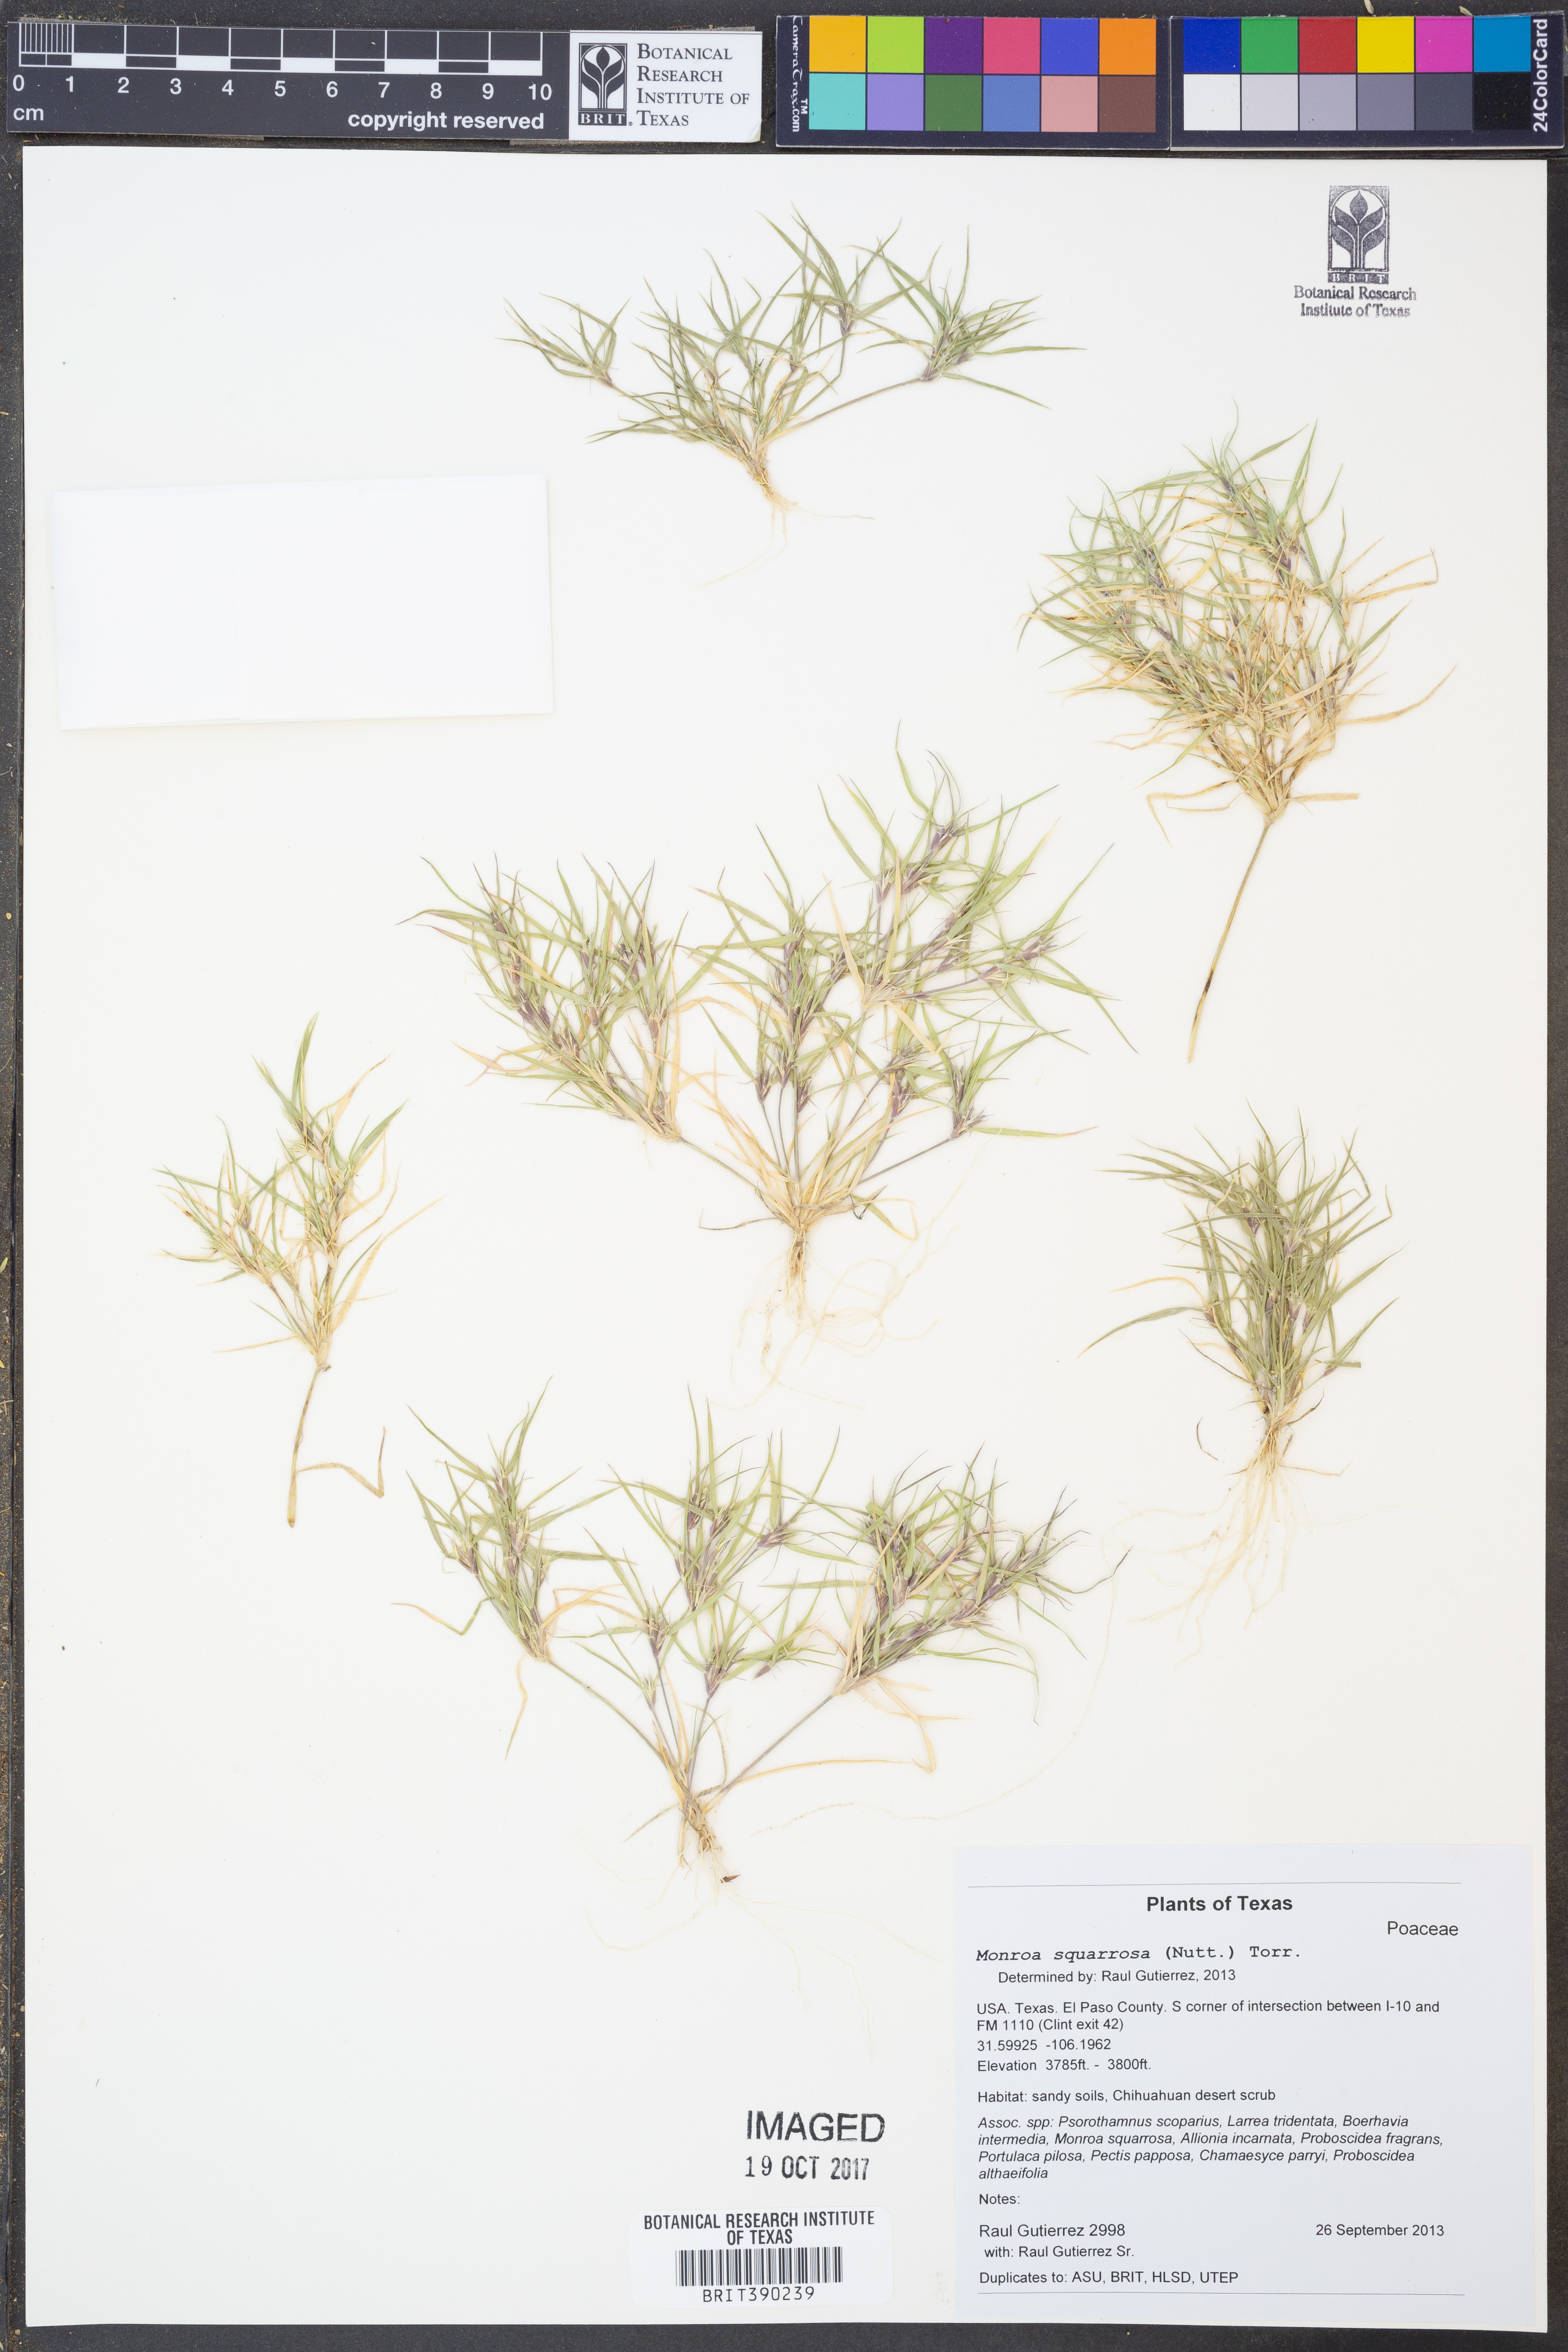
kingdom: Plantae
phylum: Tracheophyta
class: Liliopsida
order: Poales
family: Poaceae
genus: Munroa
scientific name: Munroa squarrosa
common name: False buffalo grass
